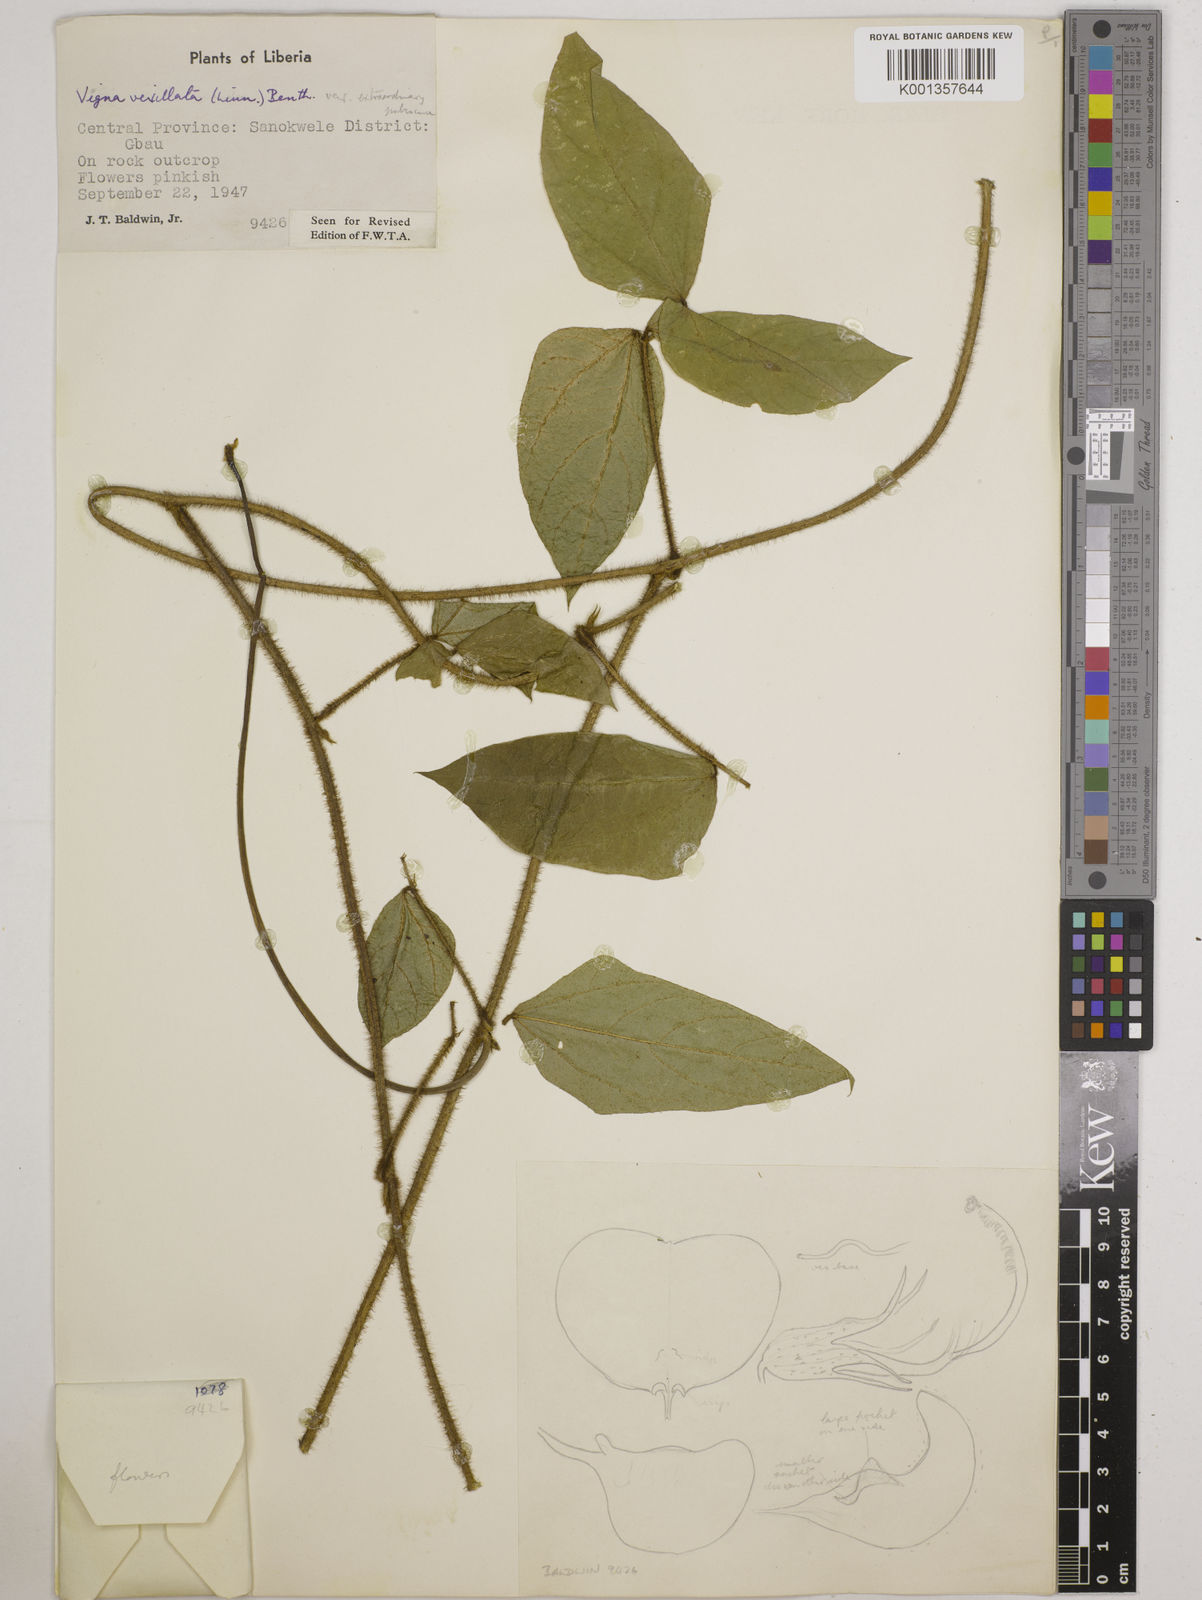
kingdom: Plantae
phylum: Tracheophyta
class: Magnoliopsida
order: Fabales
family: Fabaceae
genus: Vigna
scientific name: Vigna vexillata
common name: Zombi pea
